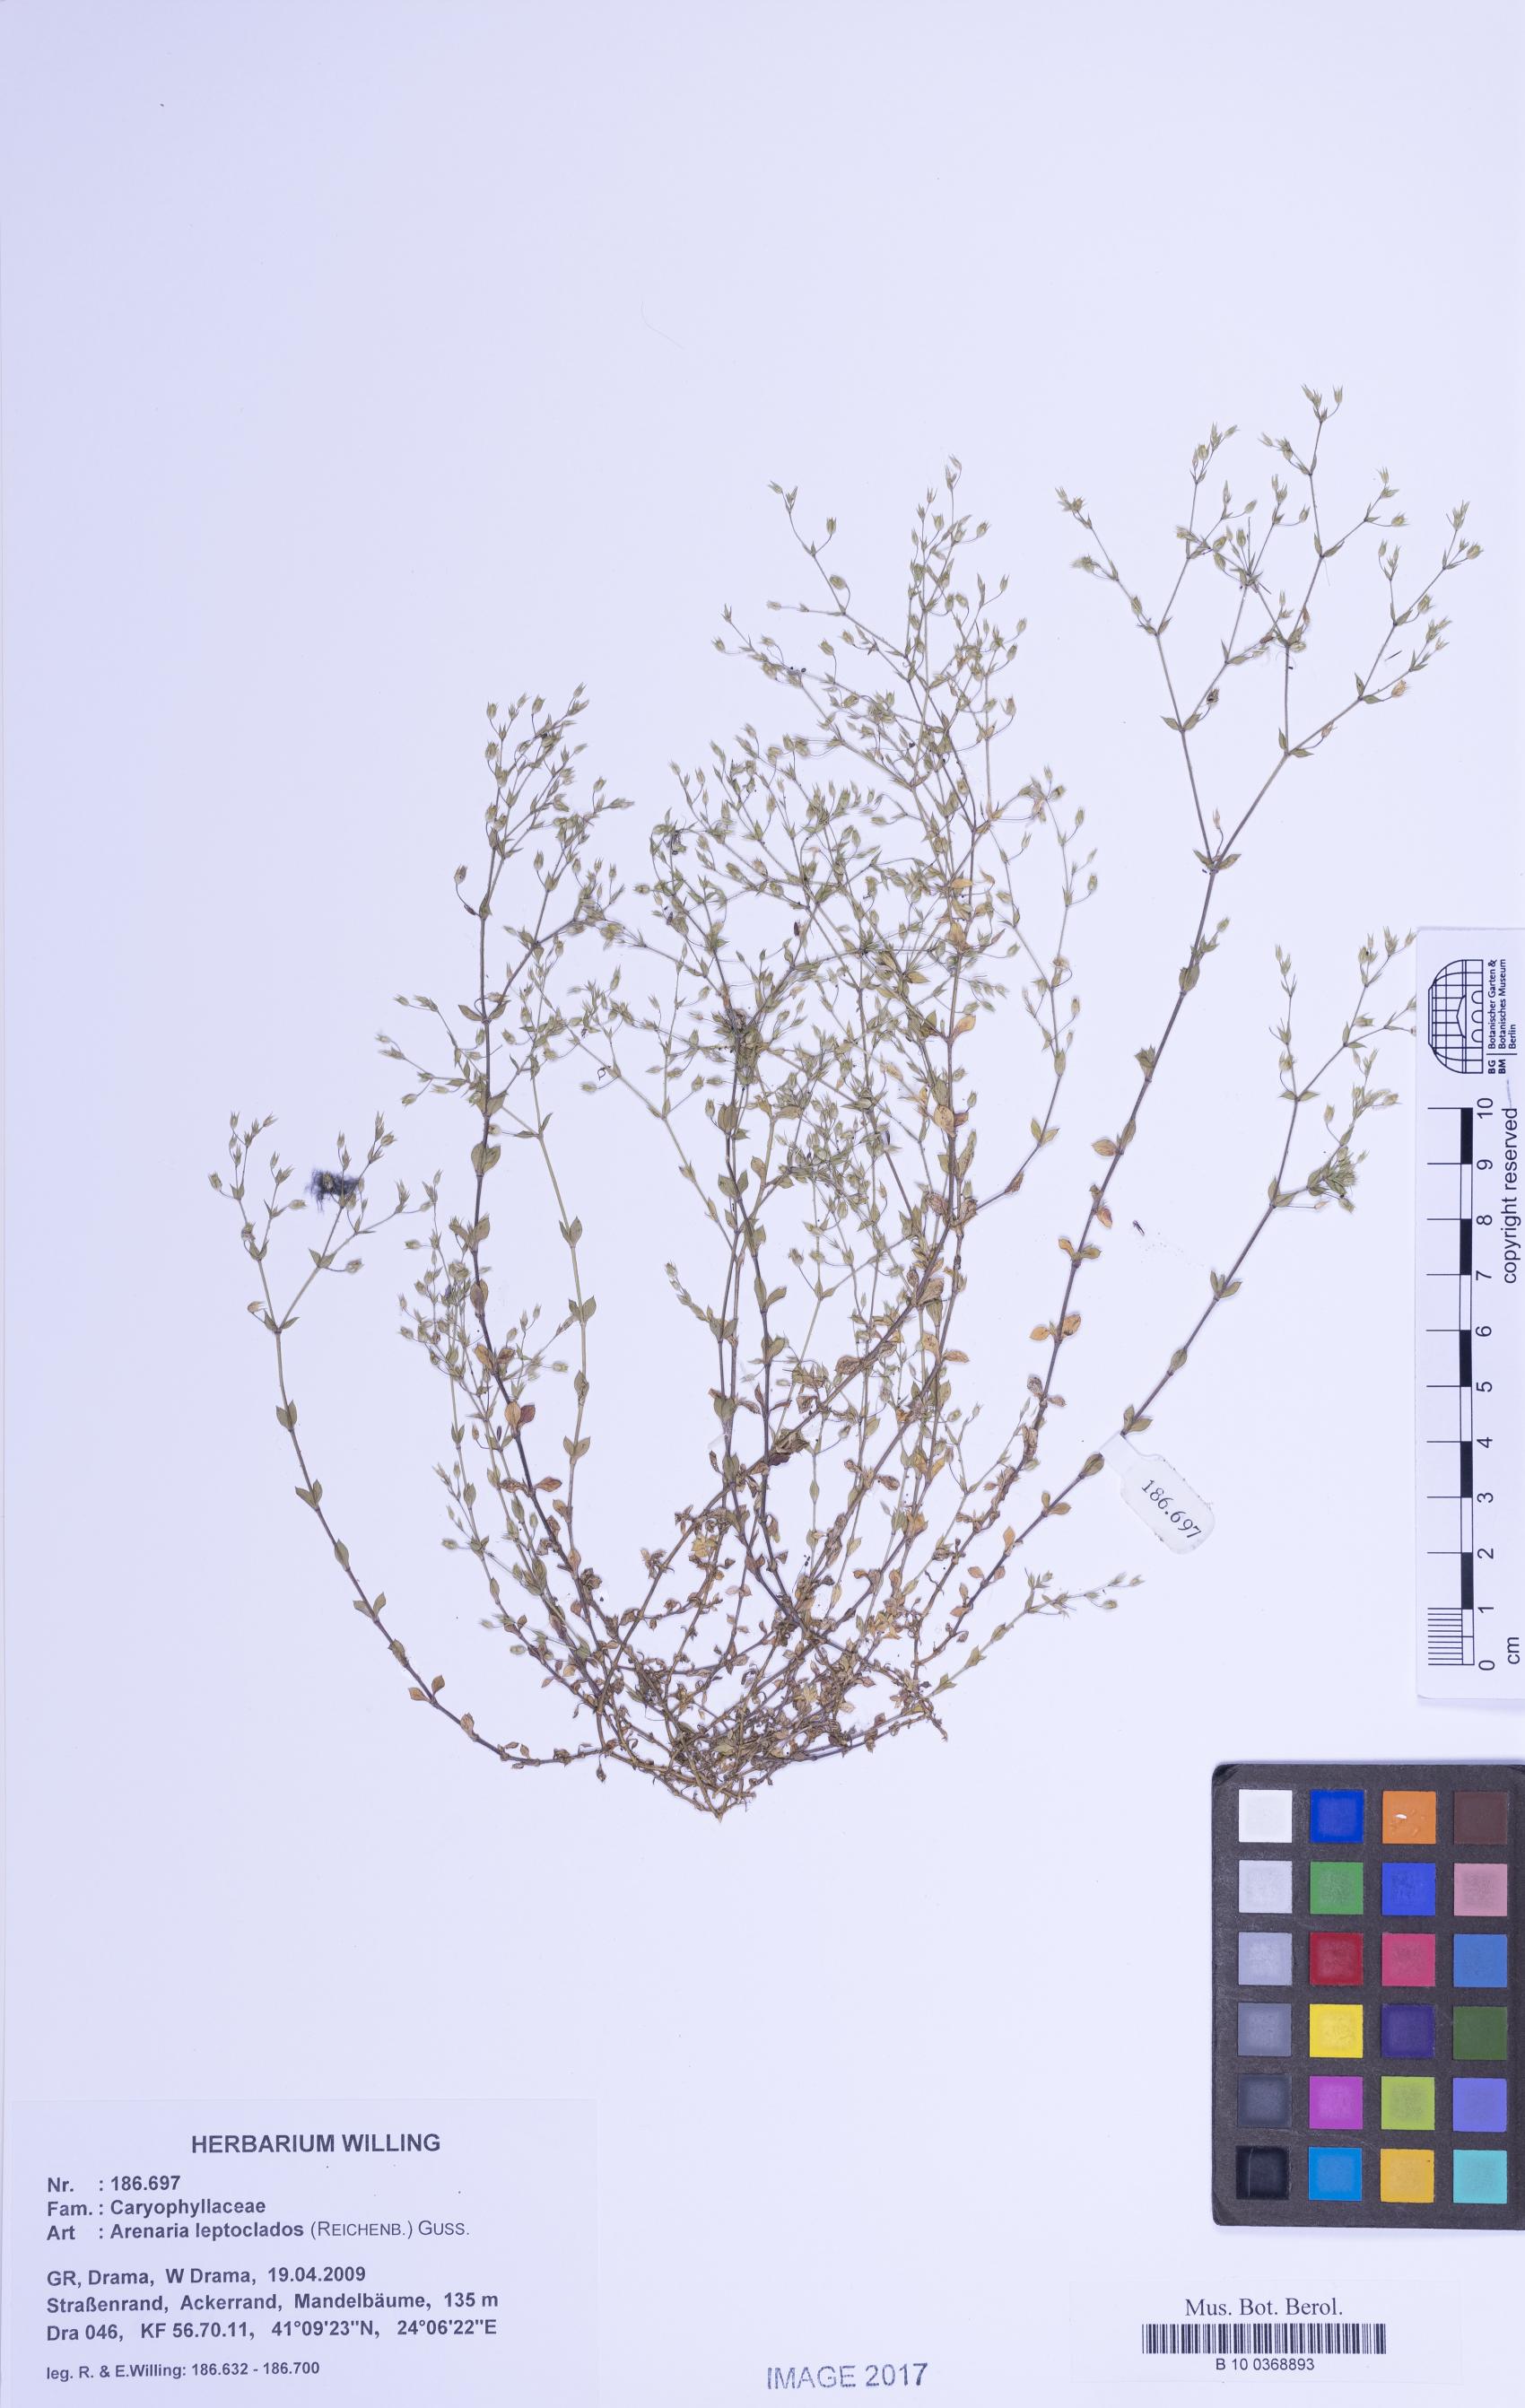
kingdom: Plantae
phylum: Tracheophyta
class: Magnoliopsida
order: Caryophyllales
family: Caryophyllaceae
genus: Arenaria
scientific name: Arenaria leptoclados
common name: Thyme-leaved sandwort
